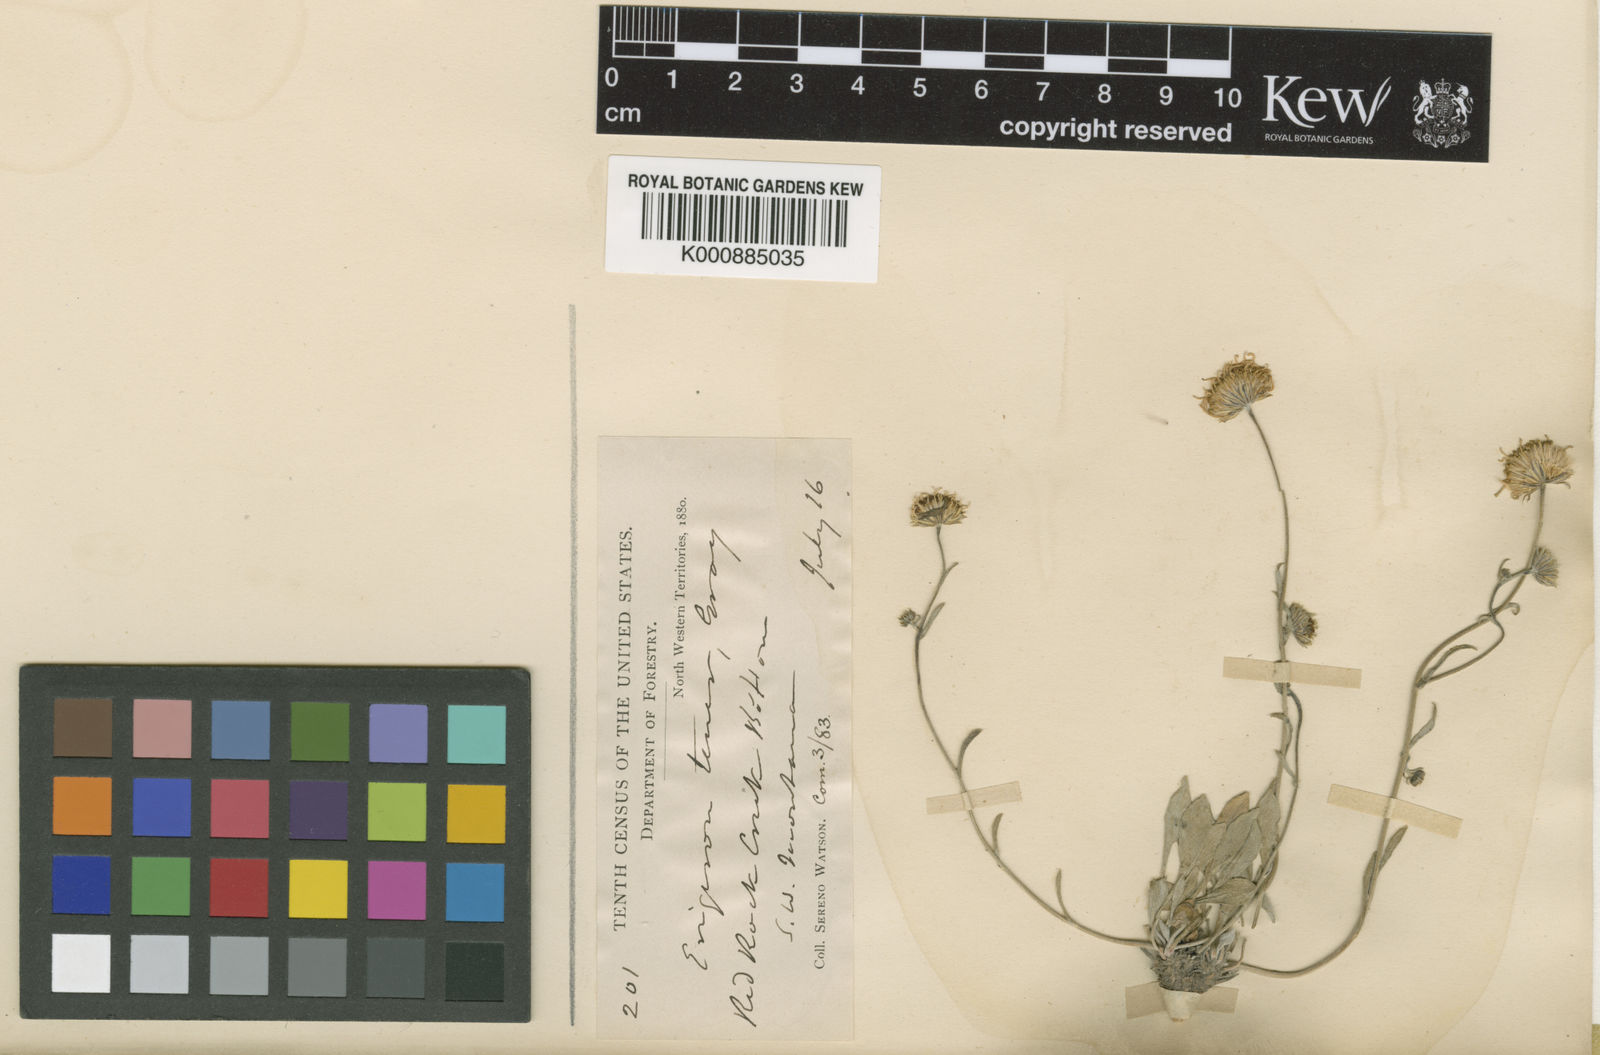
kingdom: Plantae
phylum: Tracheophyta
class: Magnoliopsida
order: Asterales
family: Asteraceae
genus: Erigeron
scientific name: Erigeron tener
